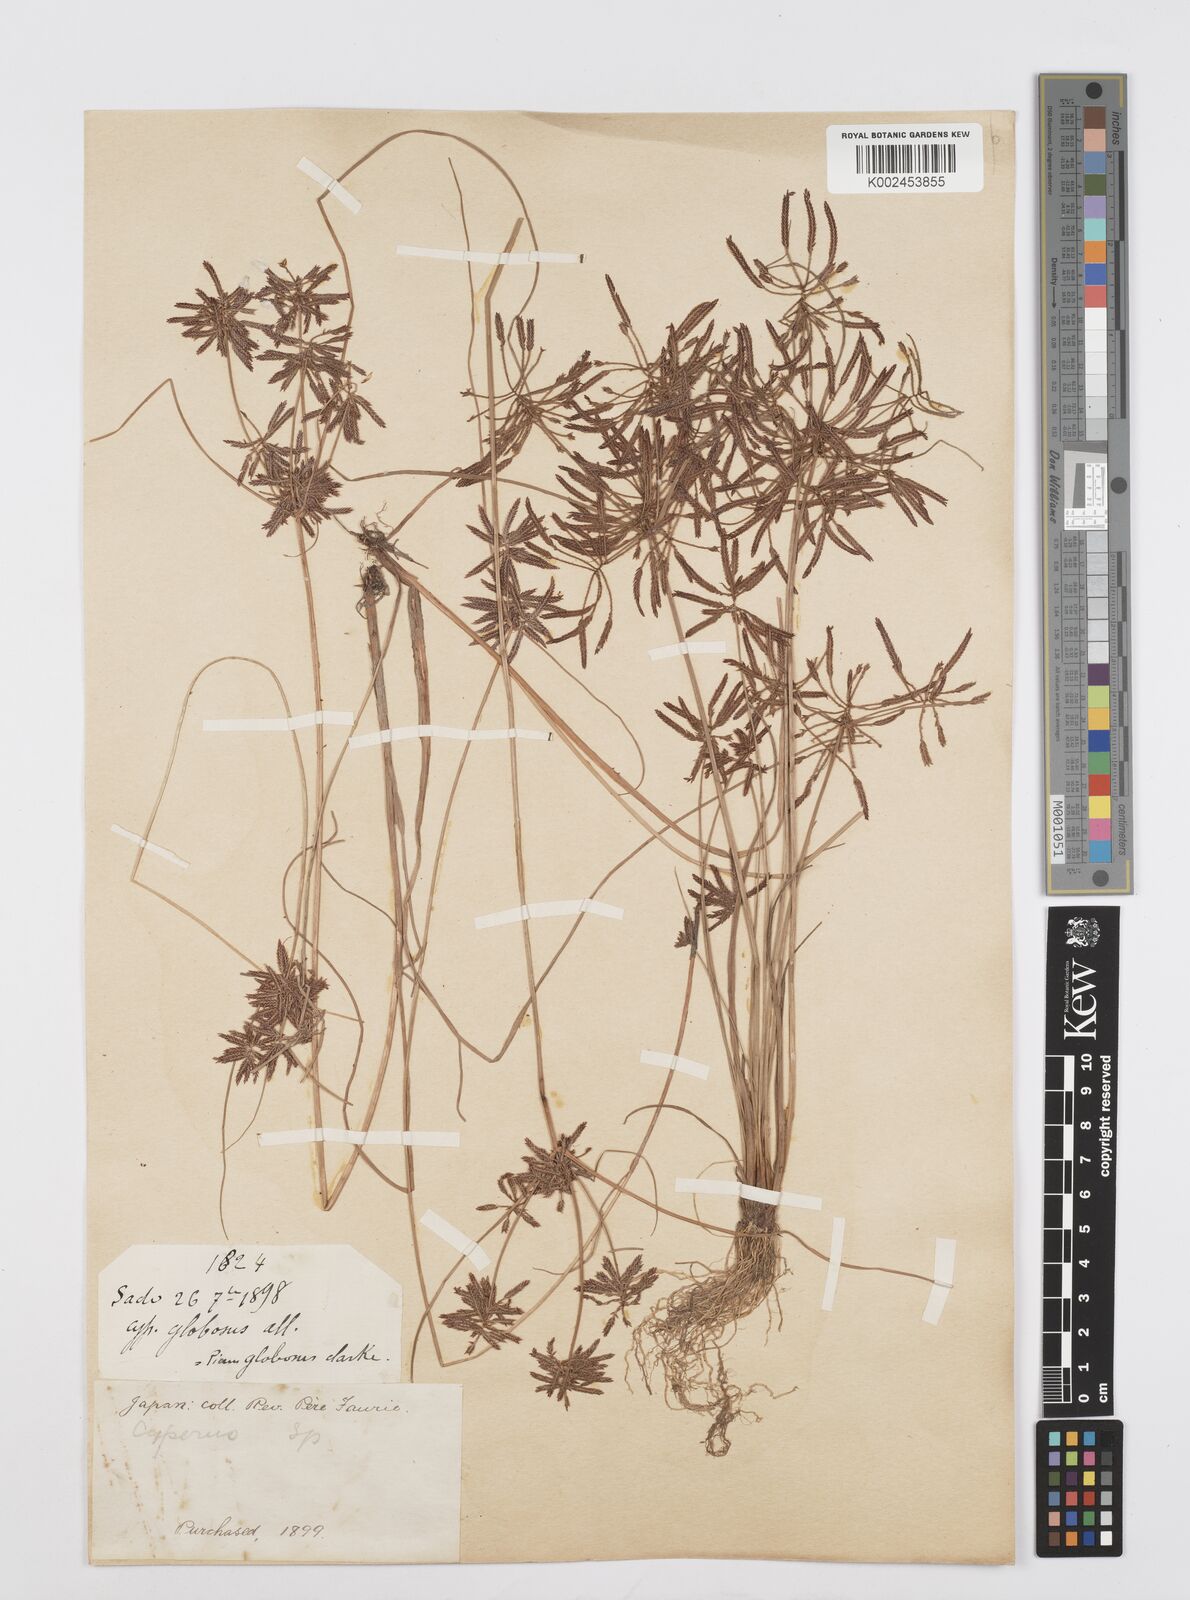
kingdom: Plantae
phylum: Tracheophyta
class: Liliopsida
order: Poales
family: Cyperaceae
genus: Cyperus
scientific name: Cyperus flavidus
